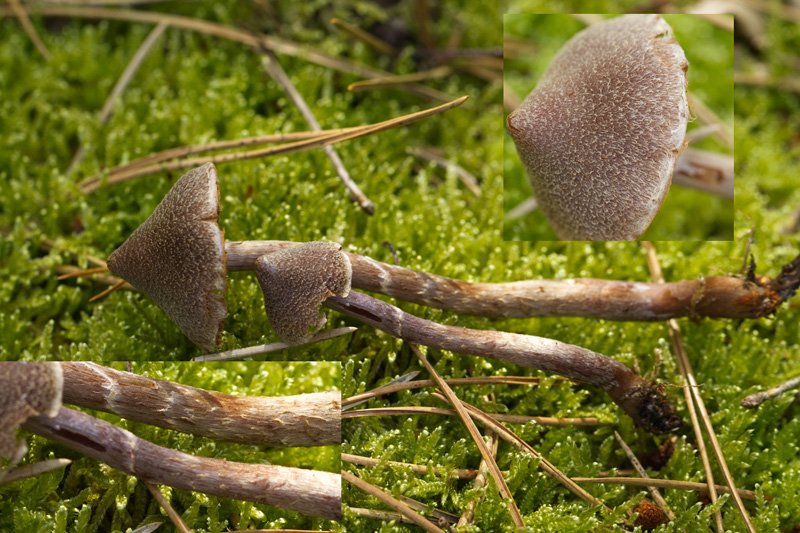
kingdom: Fungi
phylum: Basidiomycota
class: Agaricomycetes
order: Agaricales
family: Cortinariaceae
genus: Cortinarius
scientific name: Cortinarius
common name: pelargonie-slørhat
